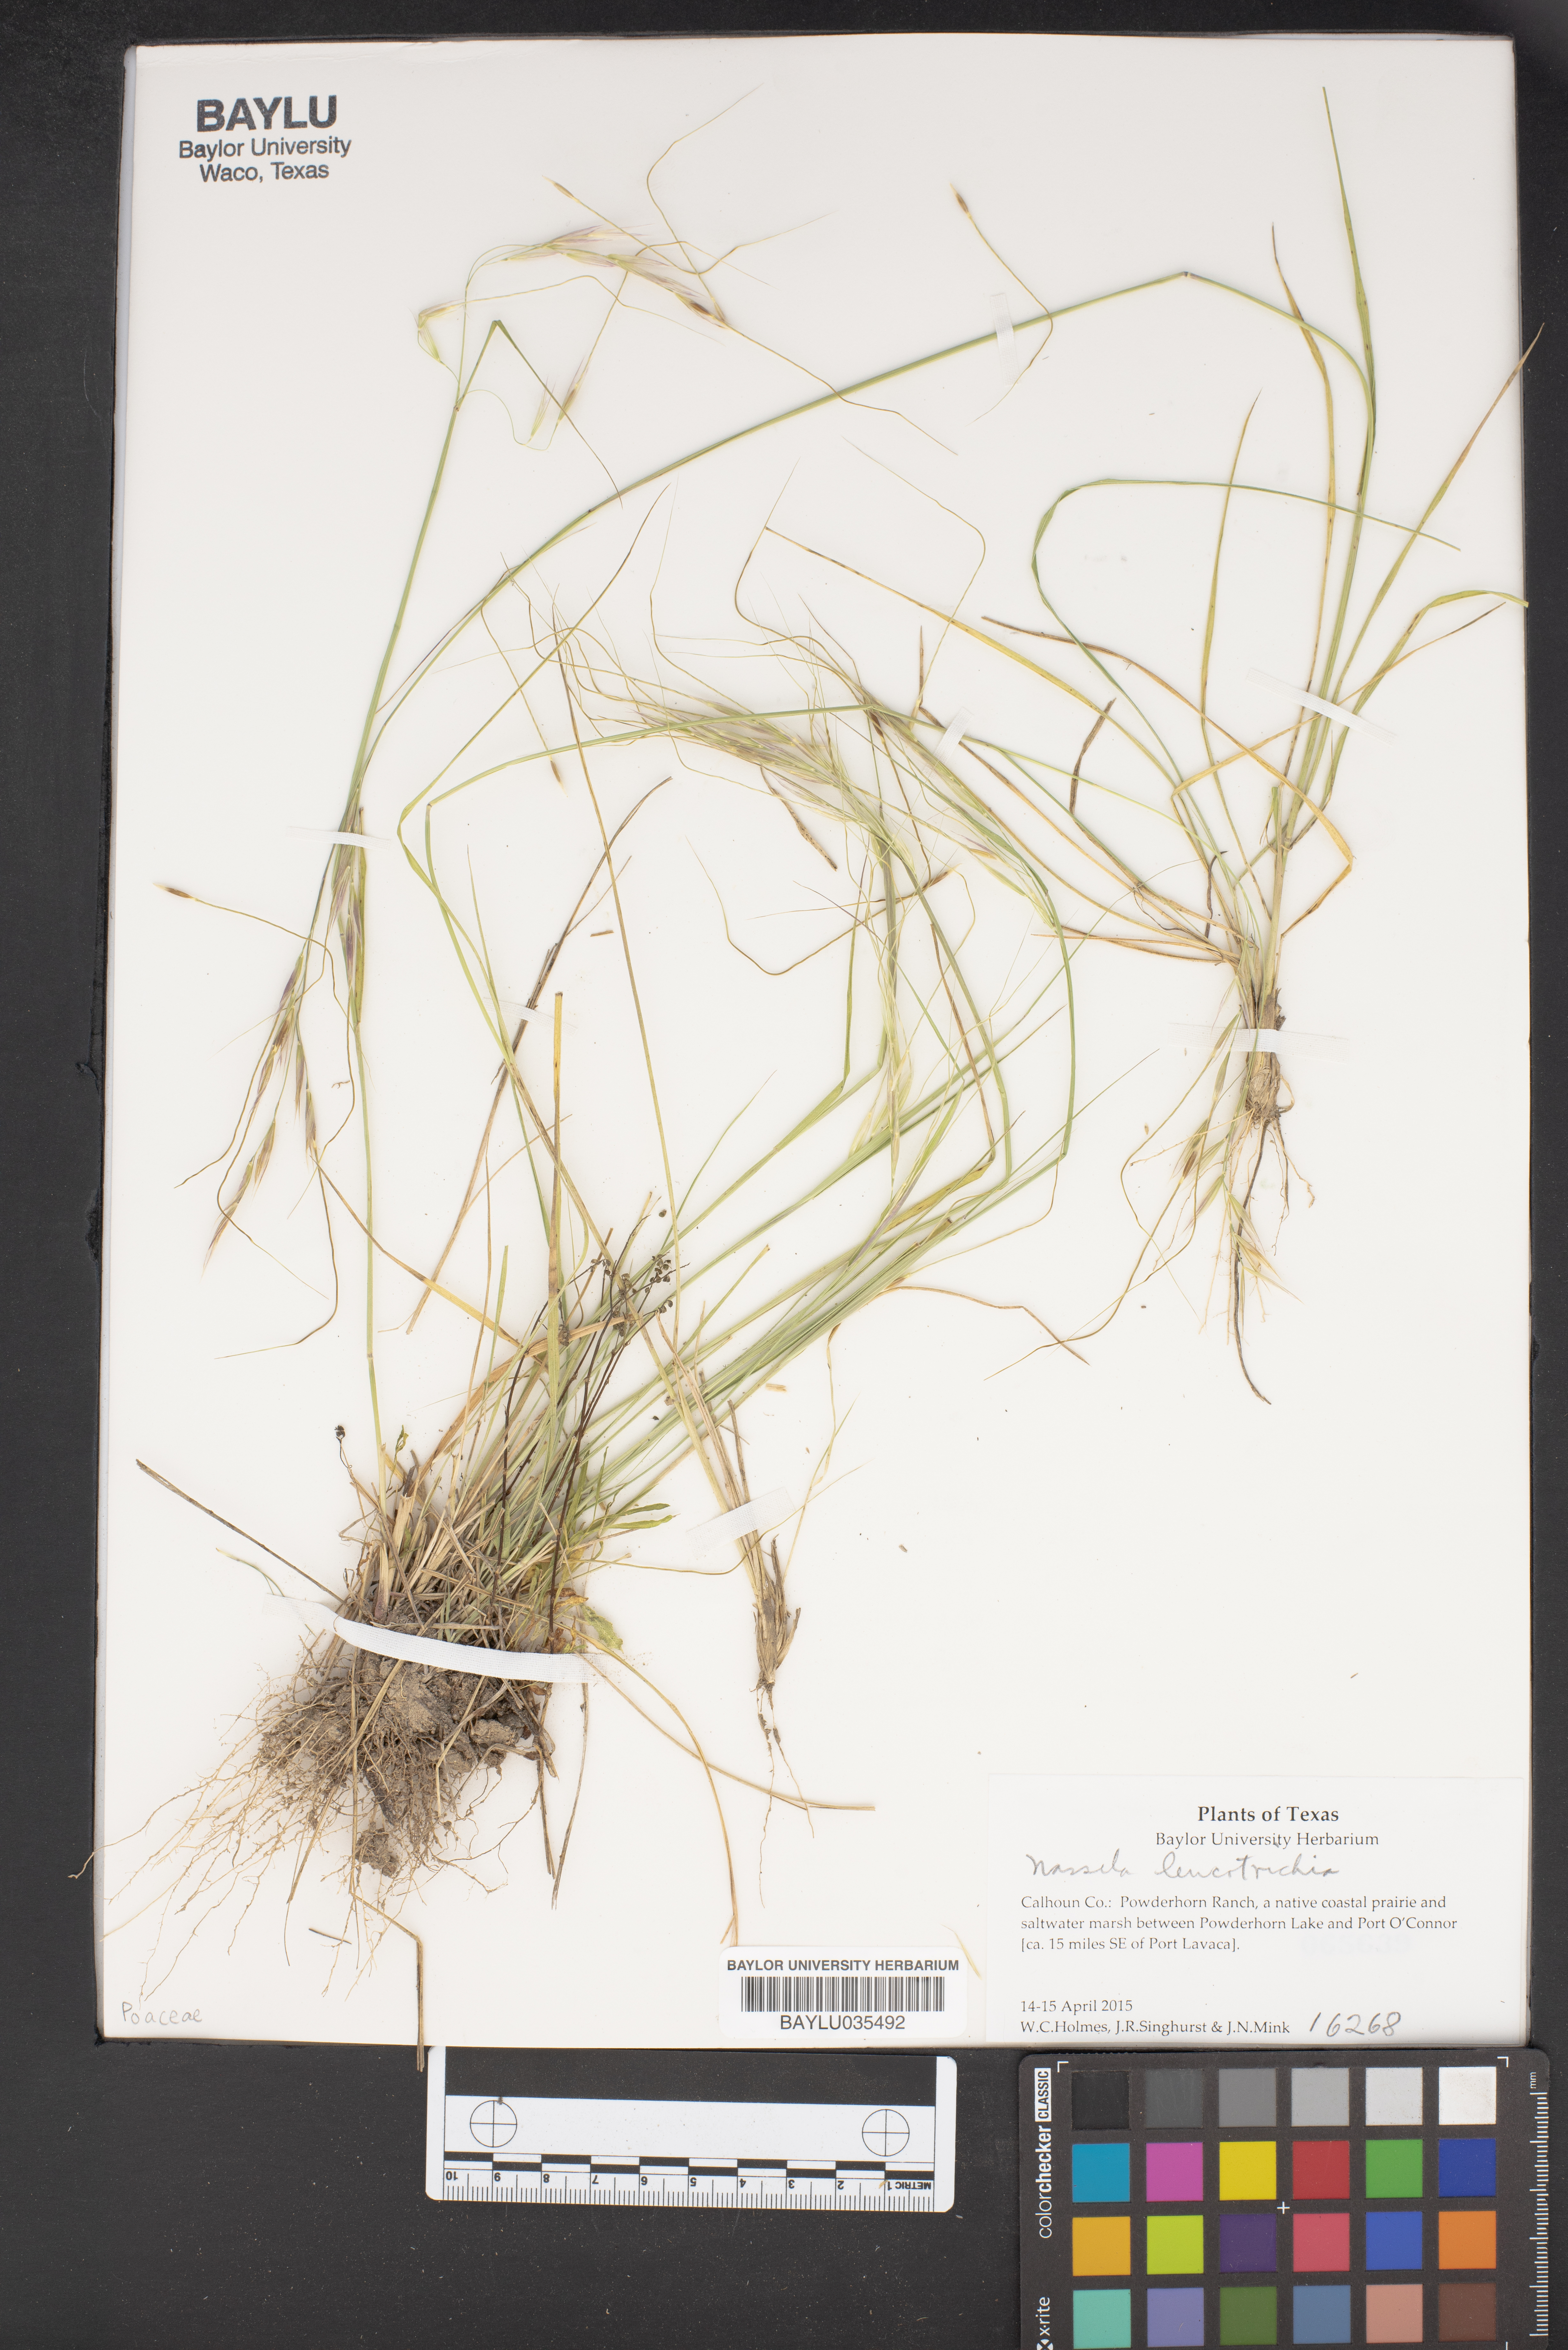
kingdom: Plantae
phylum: Tracheophyta
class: Liliopsida
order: Poales
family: Poaceae
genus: Nassella
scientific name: Nassella leucotricha
